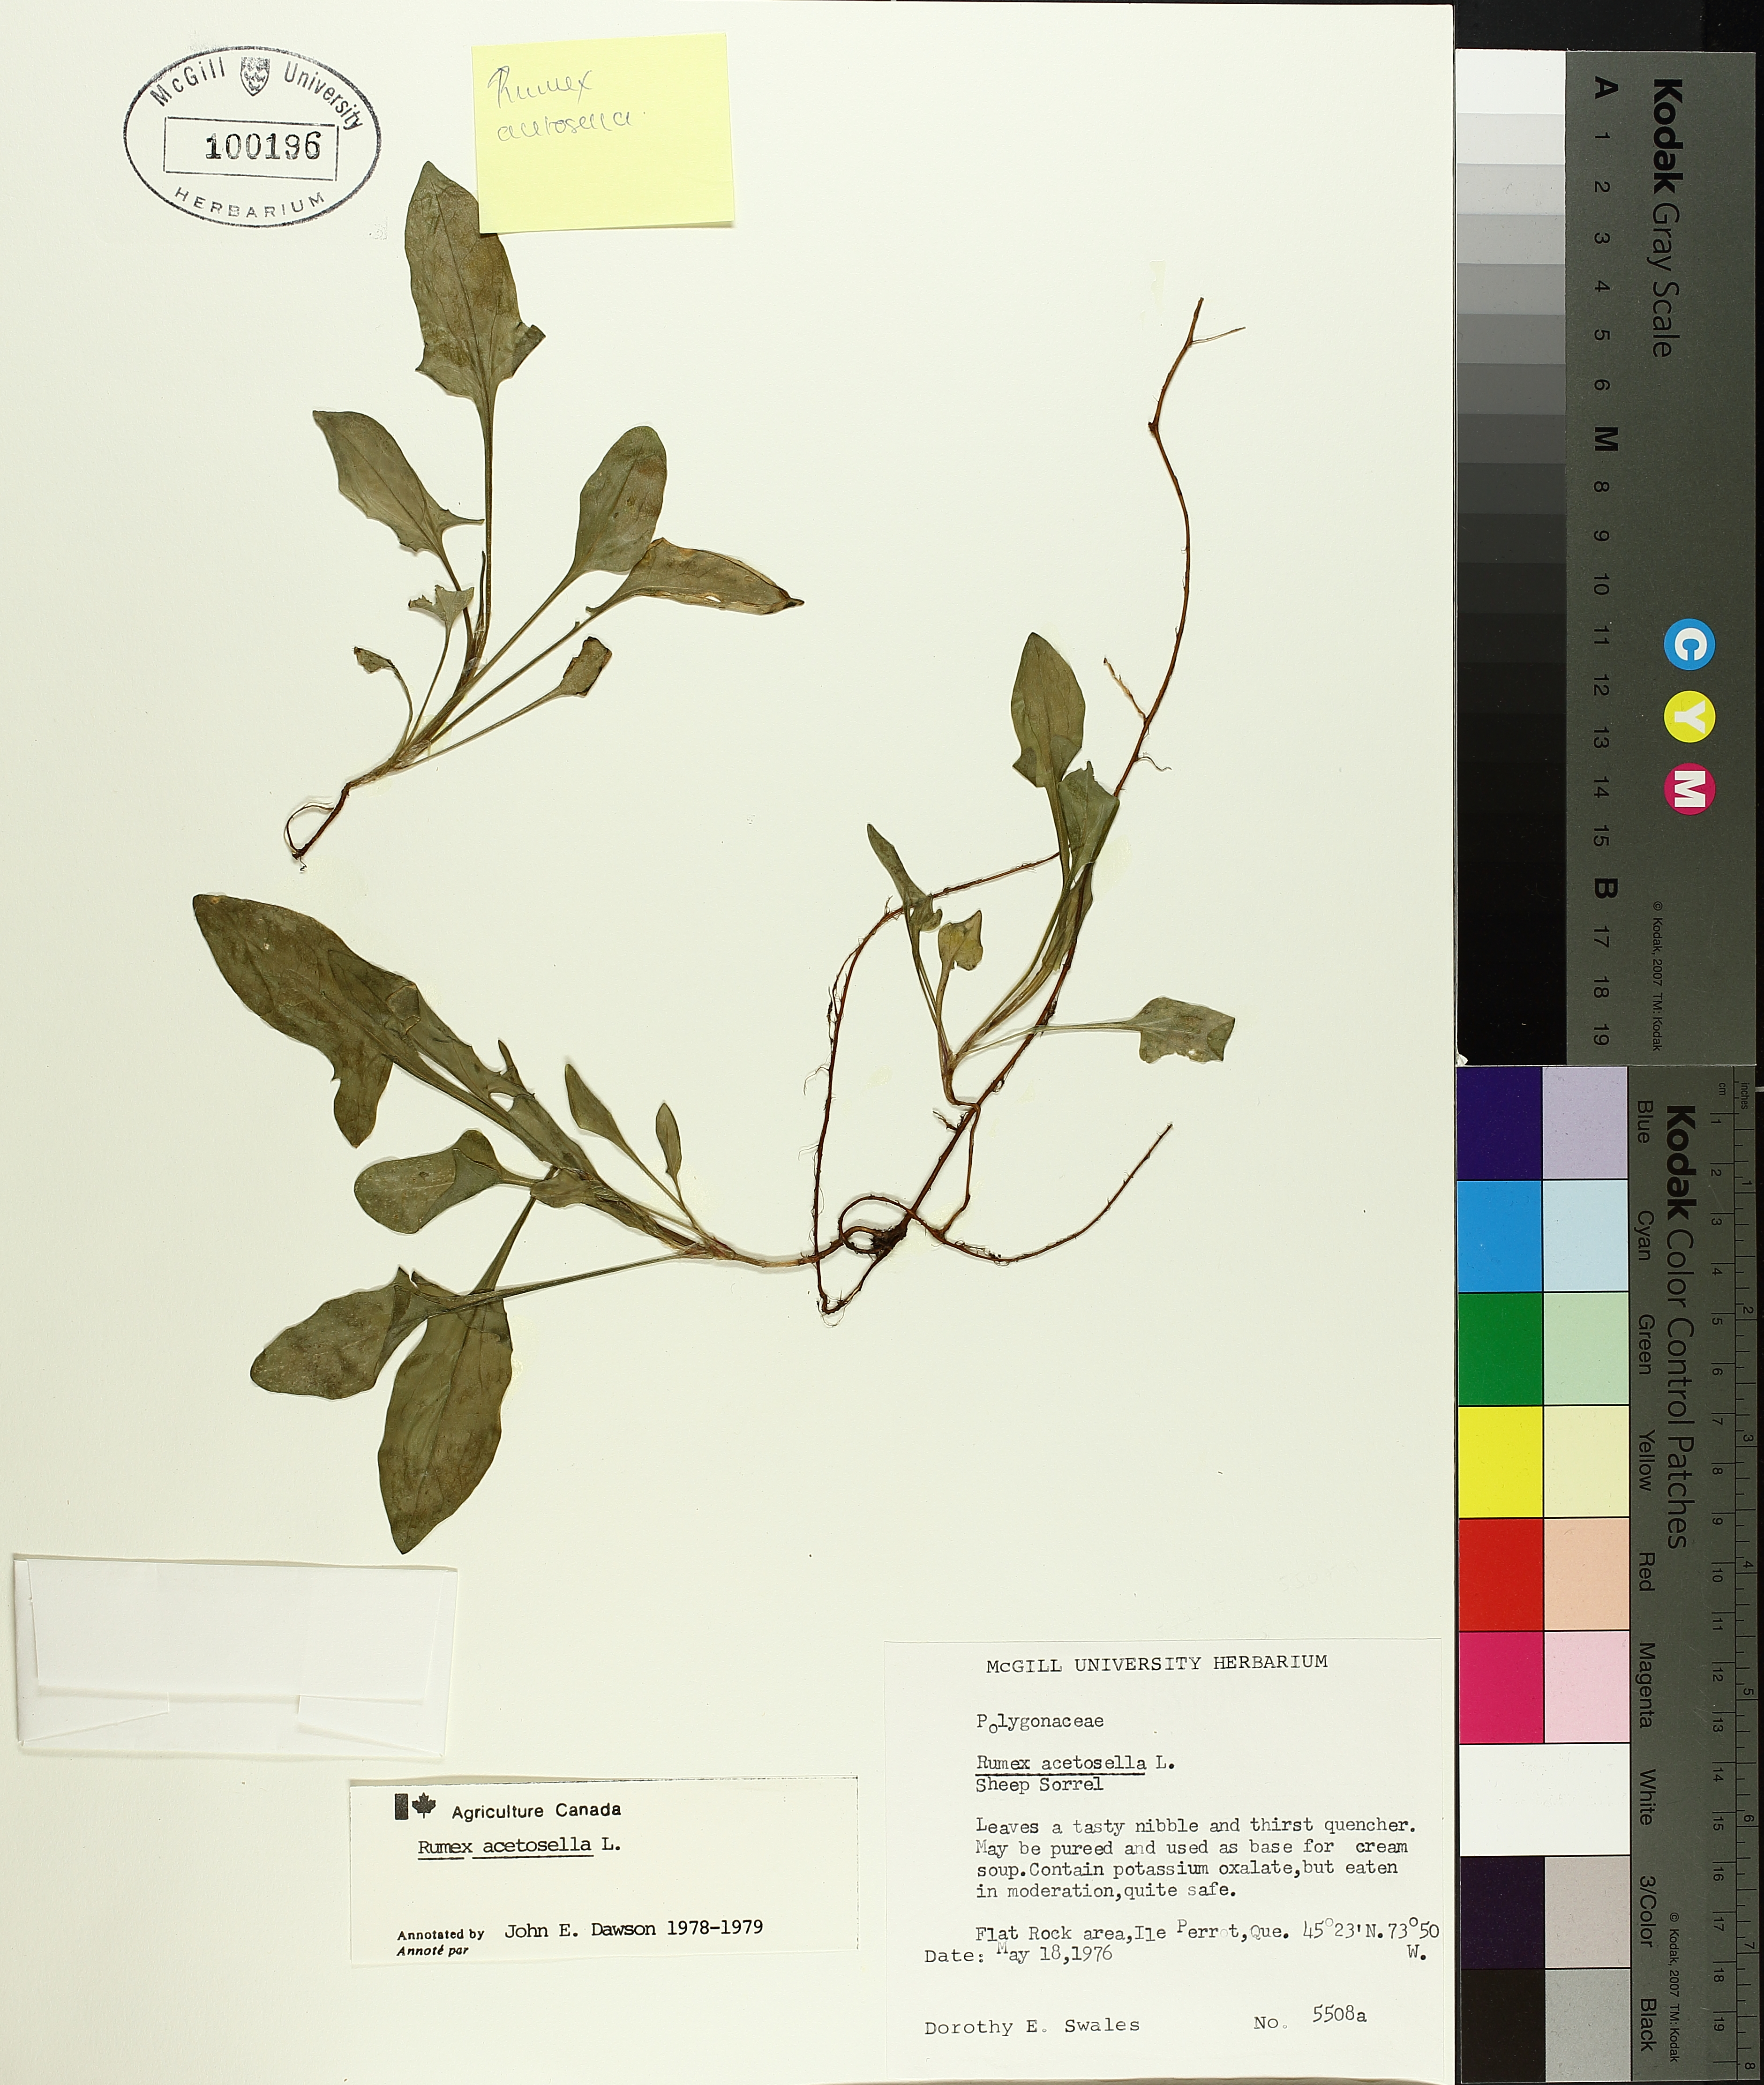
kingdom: Plantae
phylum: Tracheophyta
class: Magnoliopsida
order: Caryophyllales
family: Polygonaceae
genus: Rumex
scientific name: Rumex acetosella
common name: Common sheep sorrel
